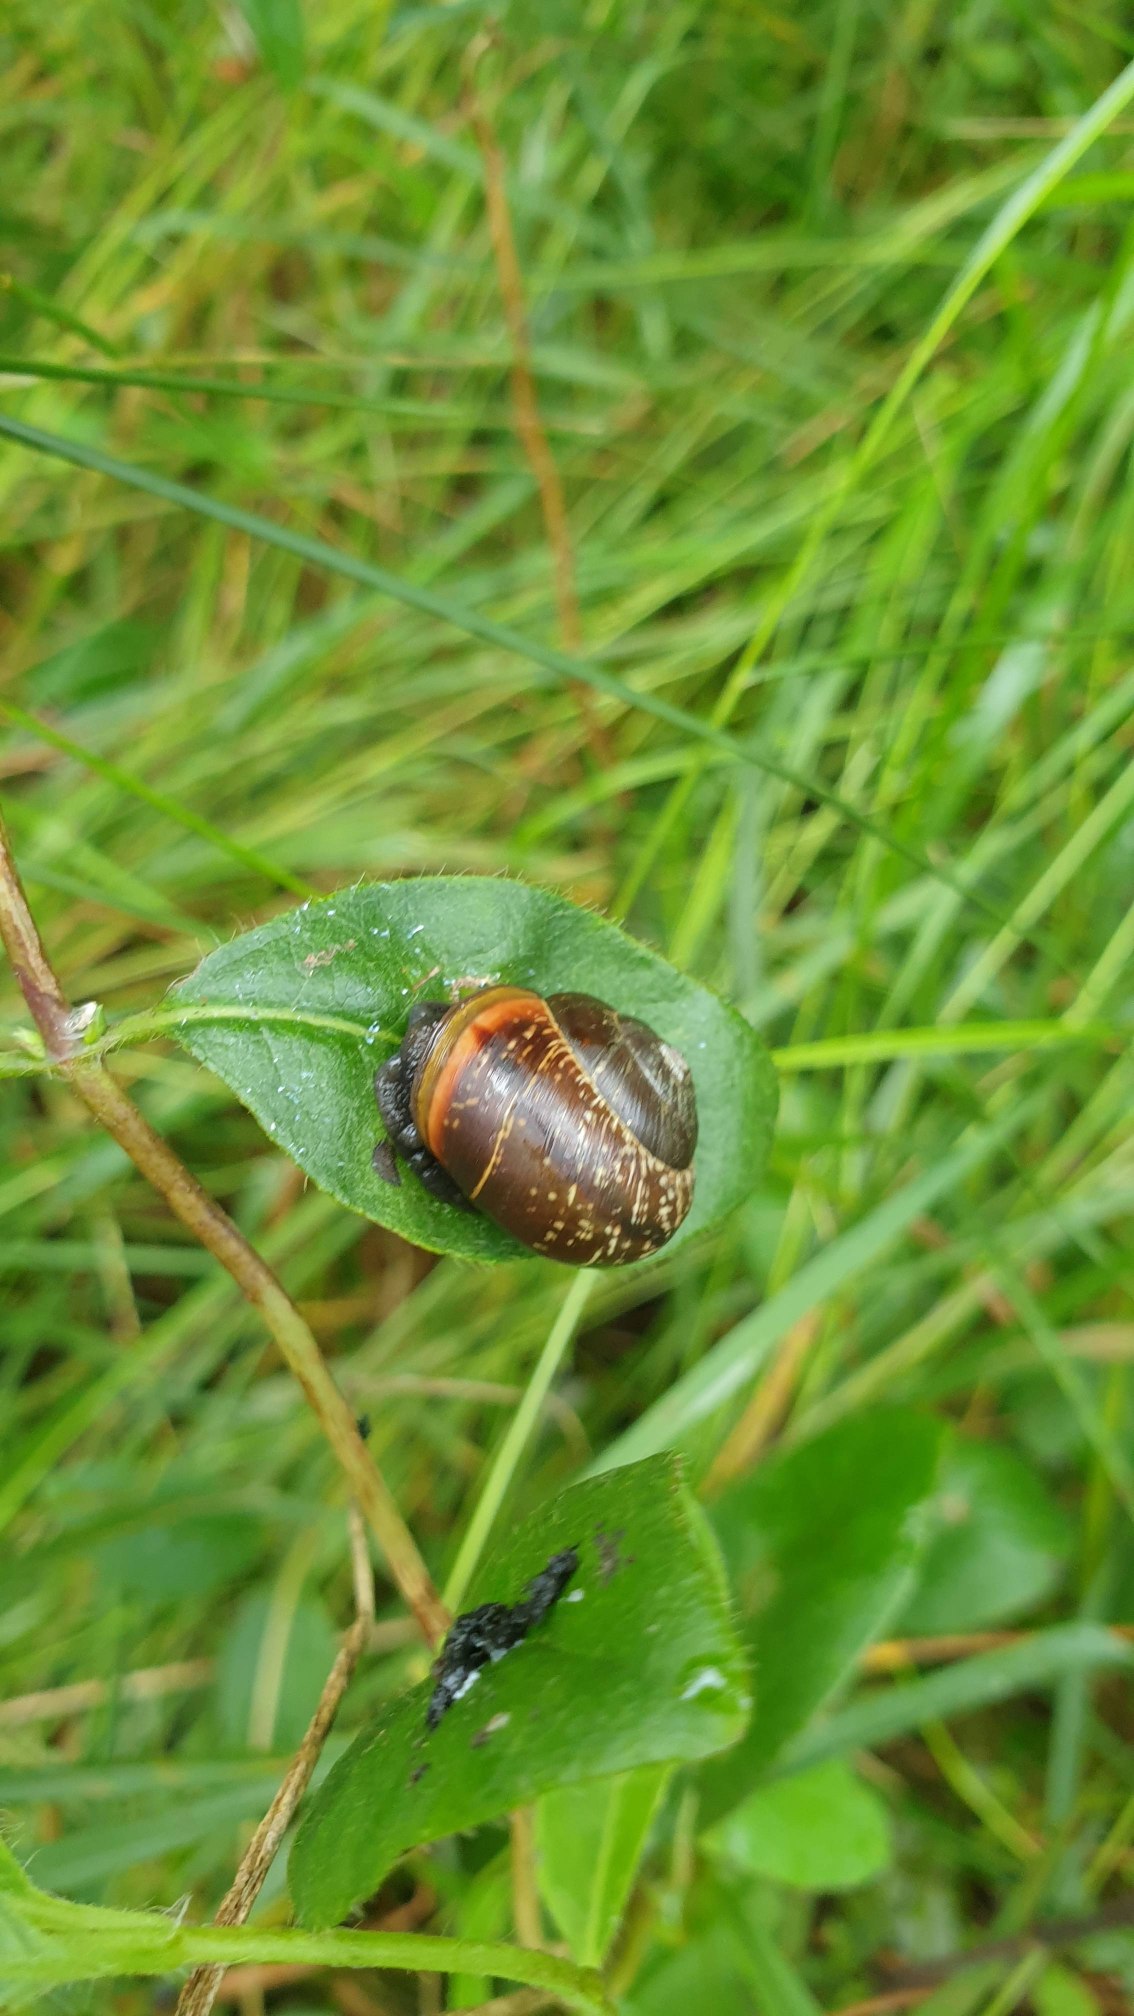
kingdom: Animalia
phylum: Mollusca
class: Gastropoda
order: Stylommatophora
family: Helicidae
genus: Arianta
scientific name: Arianta arbustorum
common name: Kratsnegl
